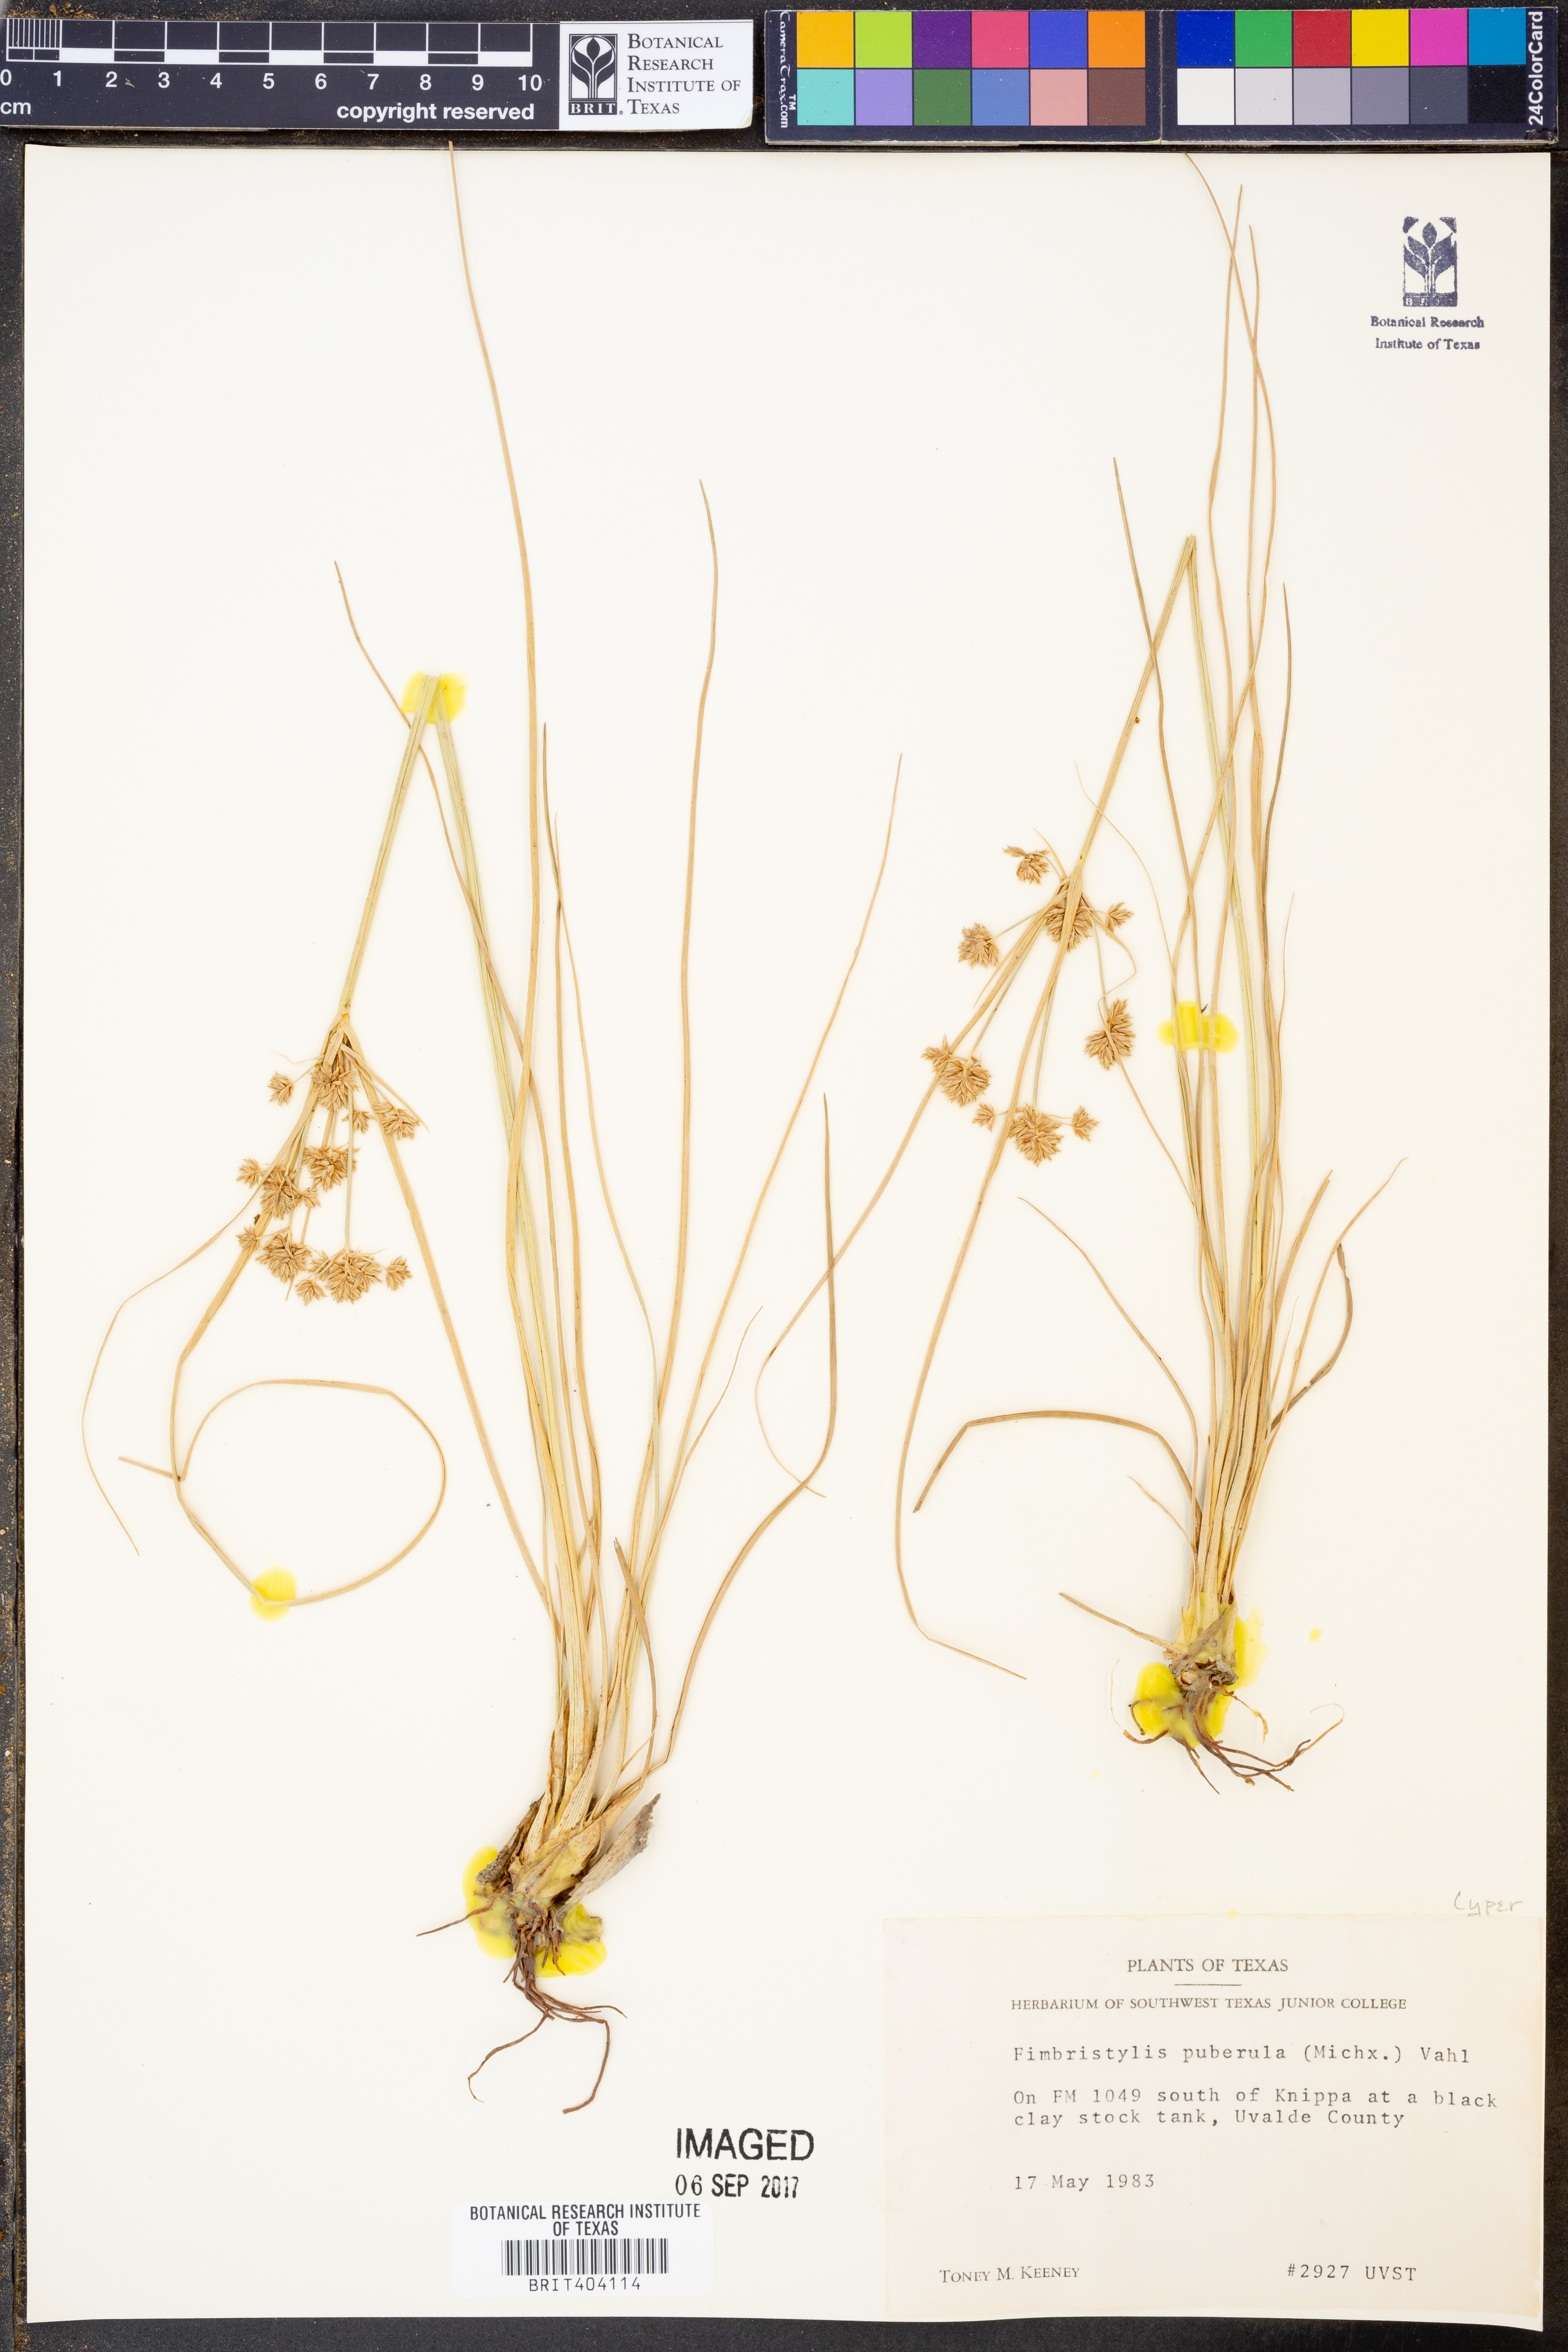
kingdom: Plantae
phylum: Tracheophyta
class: Liliopsida
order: Poales
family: Cyperaceae
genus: Fimbristylis
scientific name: Fimbristylis puberula
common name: Hairy fimbristylis
